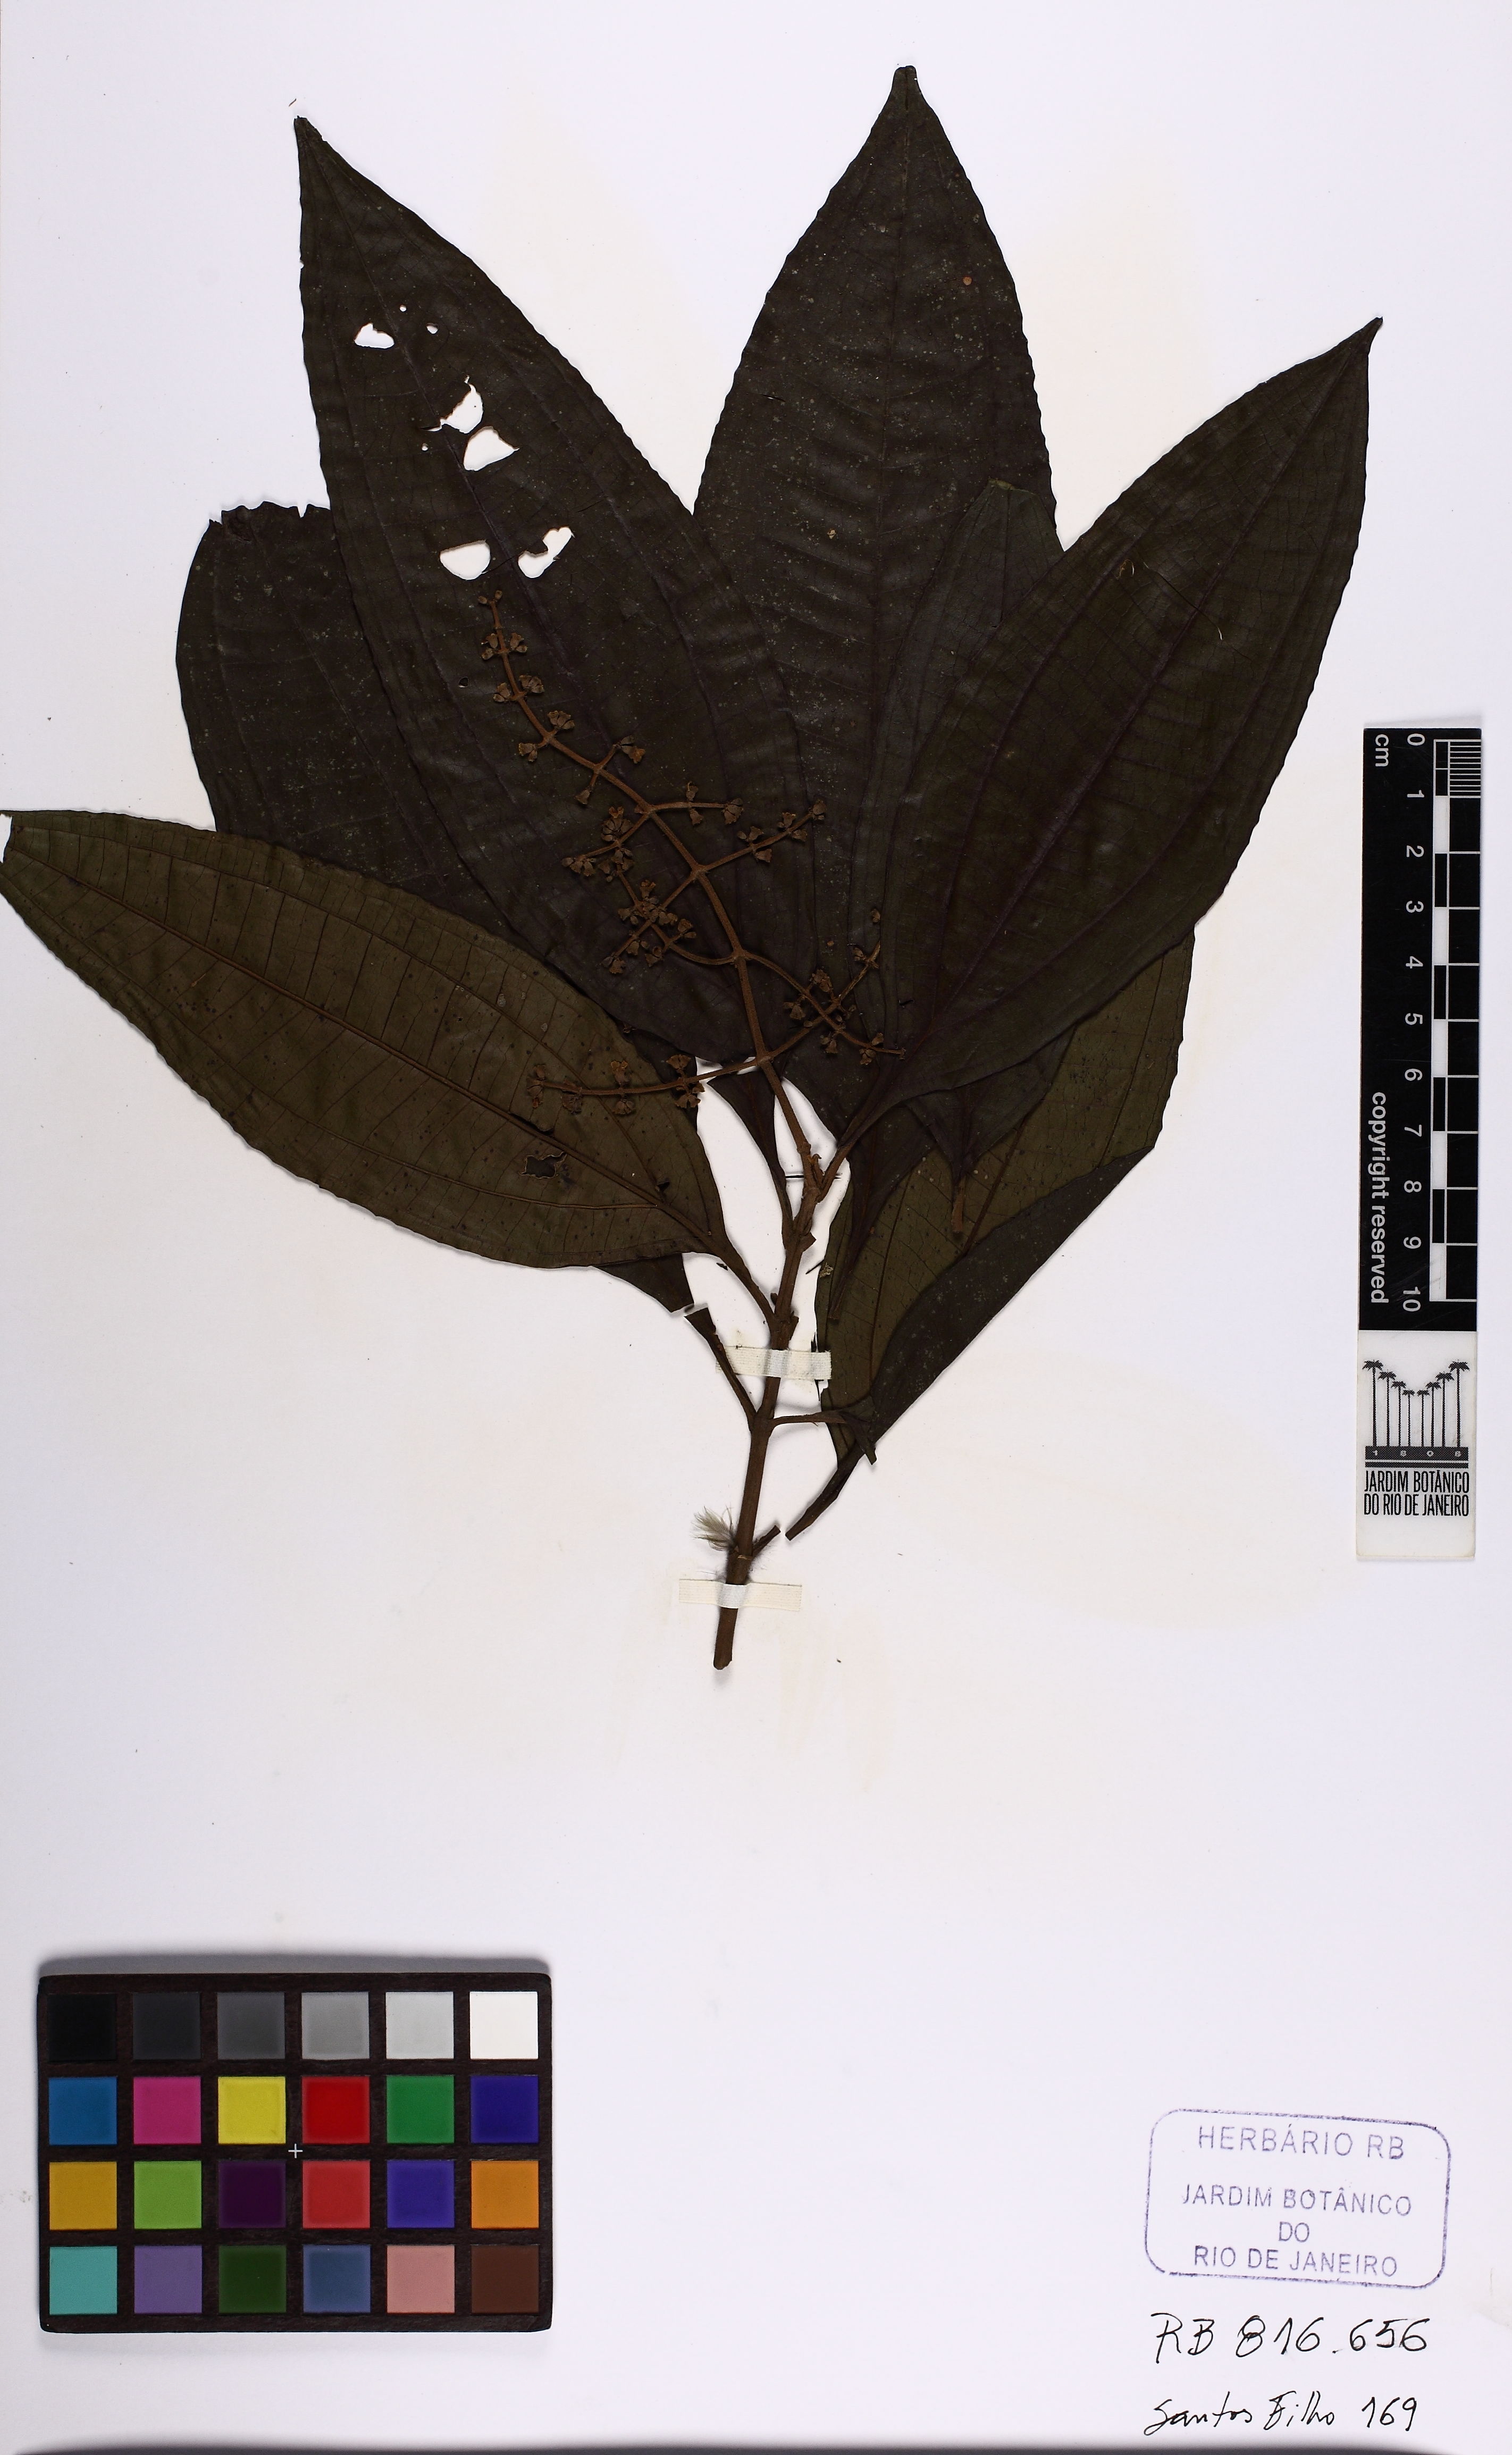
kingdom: Plantae
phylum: Tracheophyta
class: Magnoliopsida
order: Myrtales
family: Melastomataceae
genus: Miconia
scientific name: Miconia prasina
